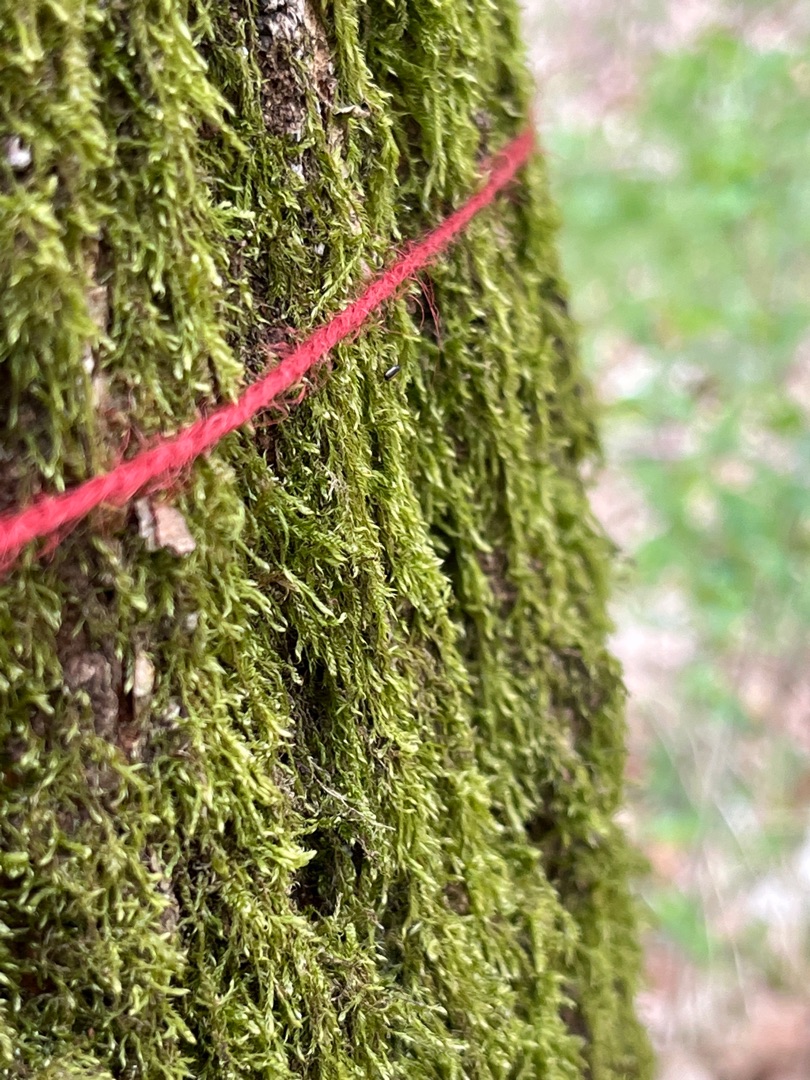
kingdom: Plantae
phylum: Bryophyta
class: Bryopsida
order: Hypnales
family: Hypnaceae
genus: Hypnum
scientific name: Hypnum
